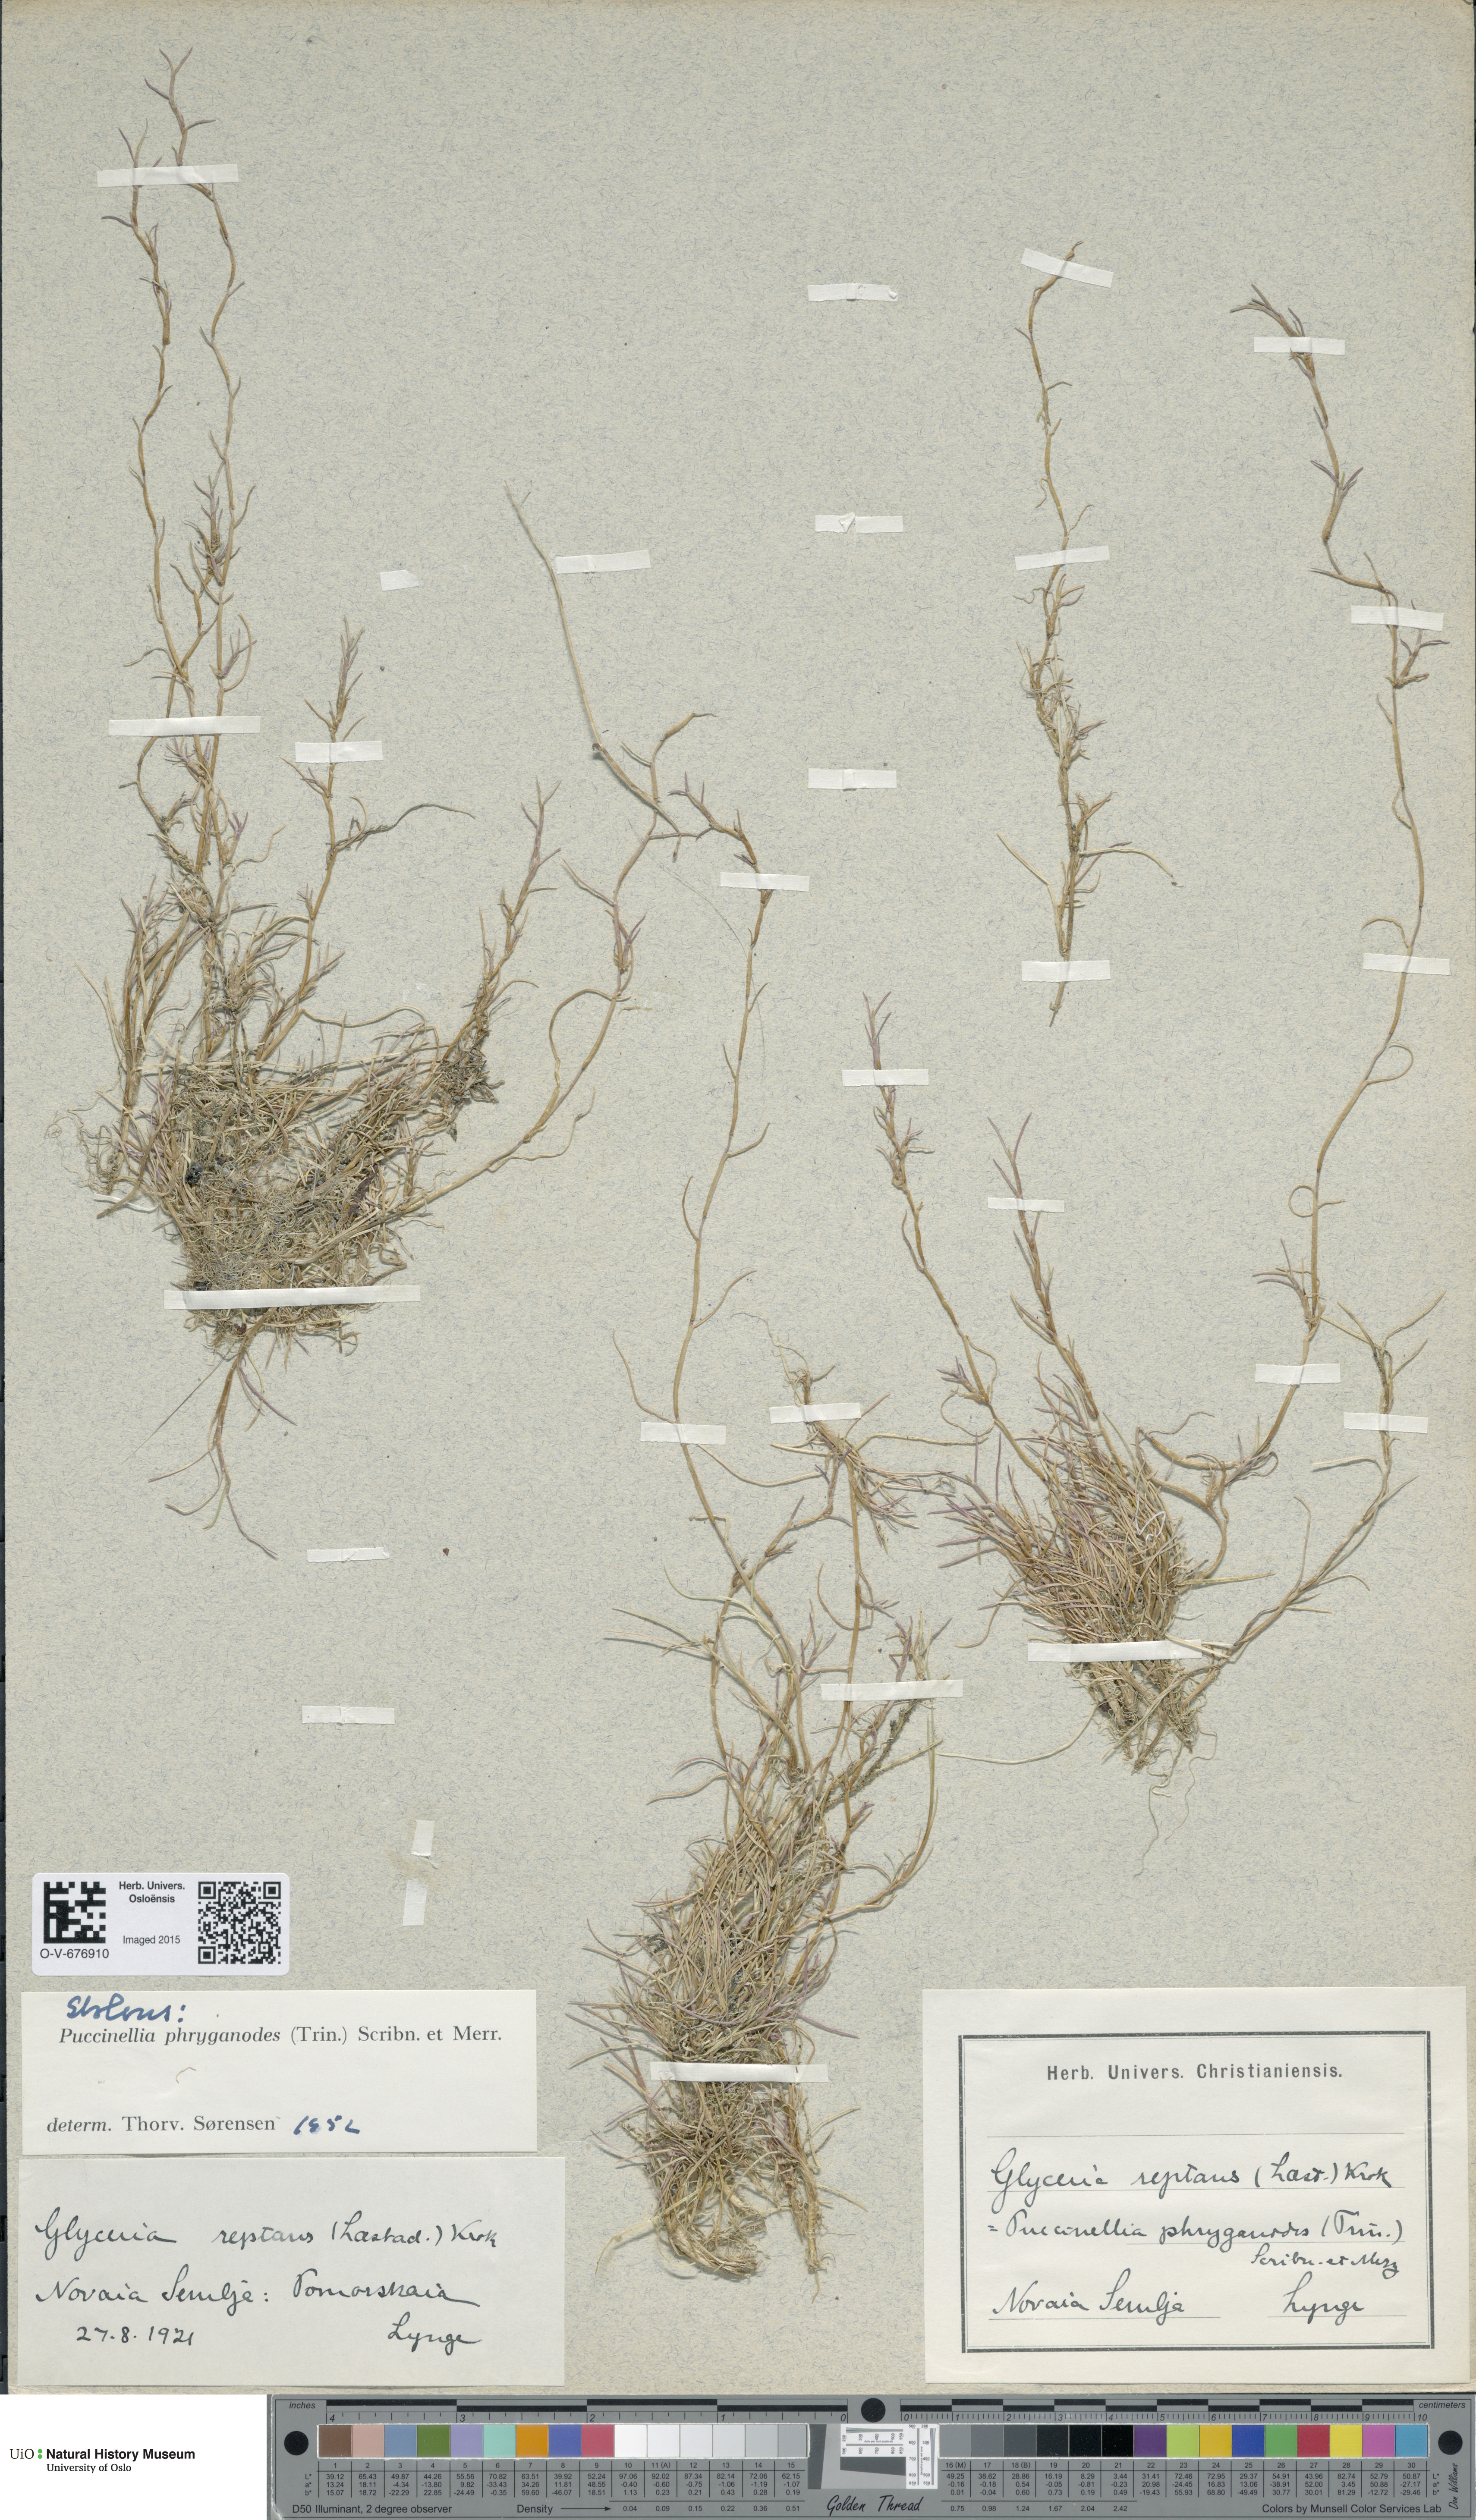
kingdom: Plantae
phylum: Tracheophyta
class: Liliopsida
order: Poales
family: Poaceae
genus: Puccinellia
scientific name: Puccinellia phryganodes
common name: Creeping alkaligrass
